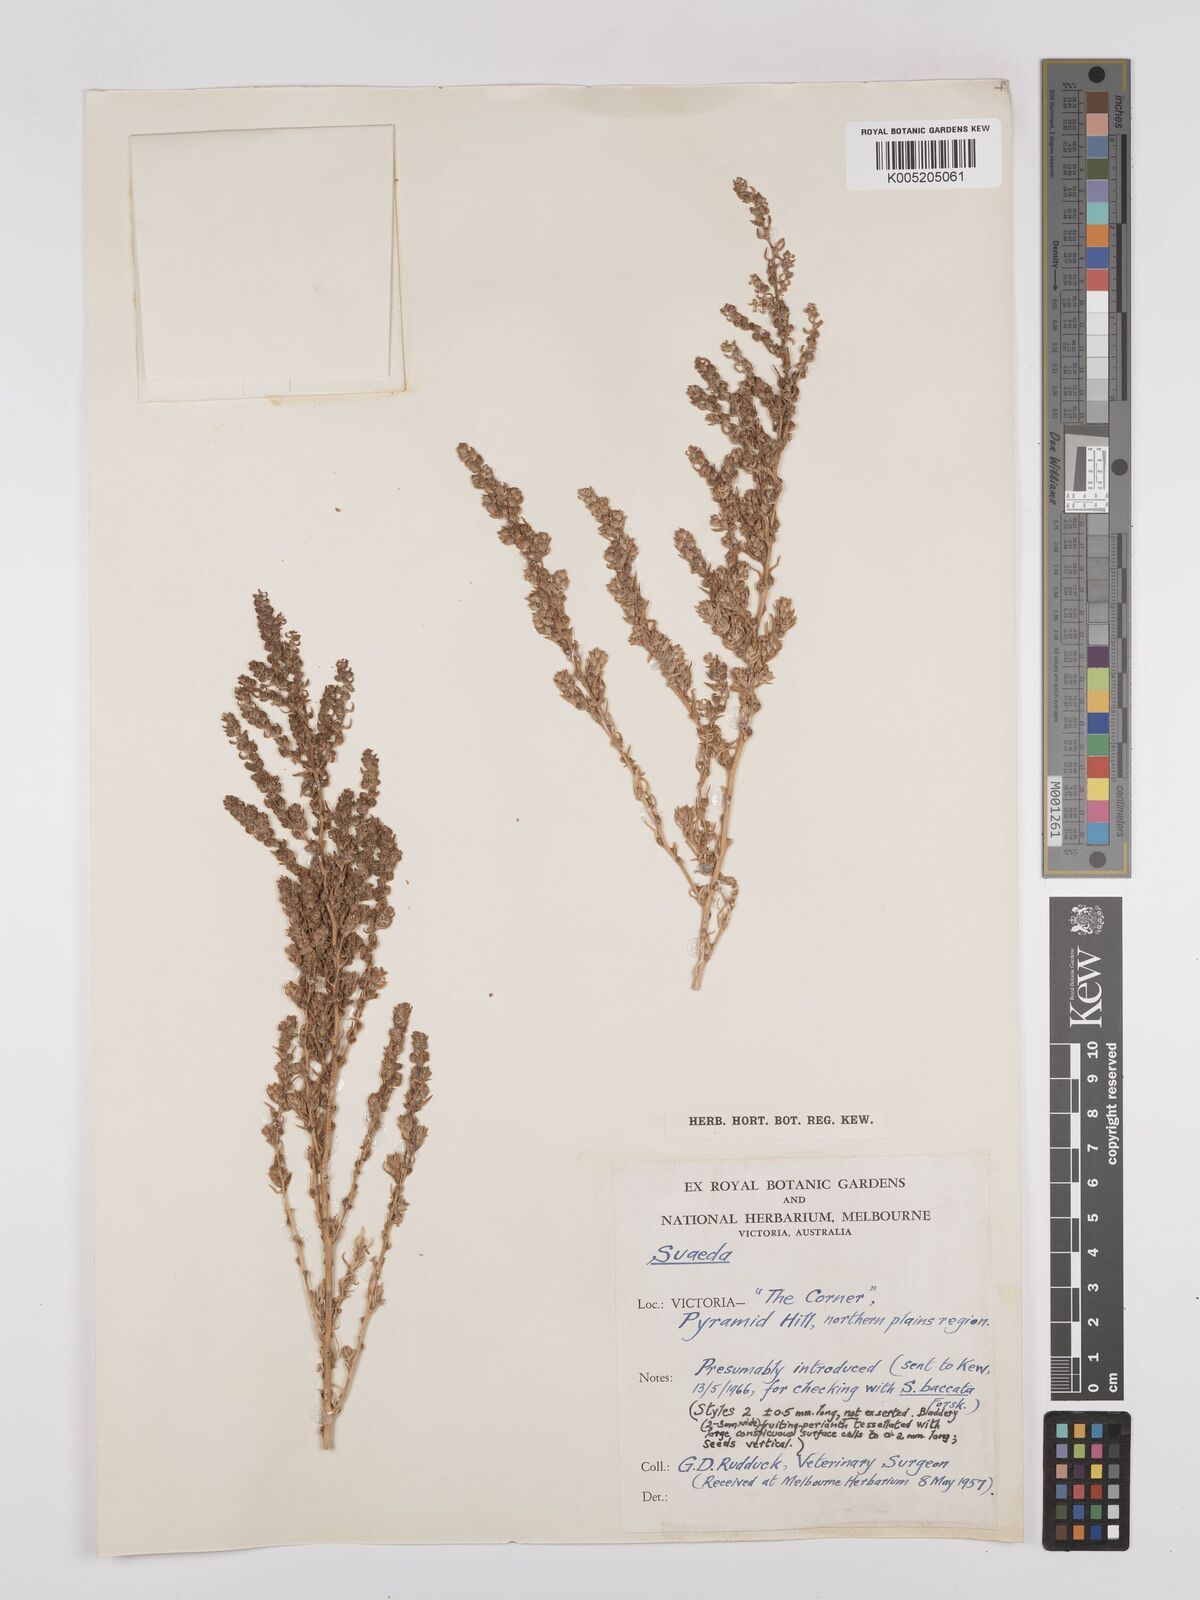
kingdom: Plantae
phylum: Tracheophyta
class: Magnoliopsida
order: Caryophyllales
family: Amaranthaceae
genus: Suaeda
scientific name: Suaeda
